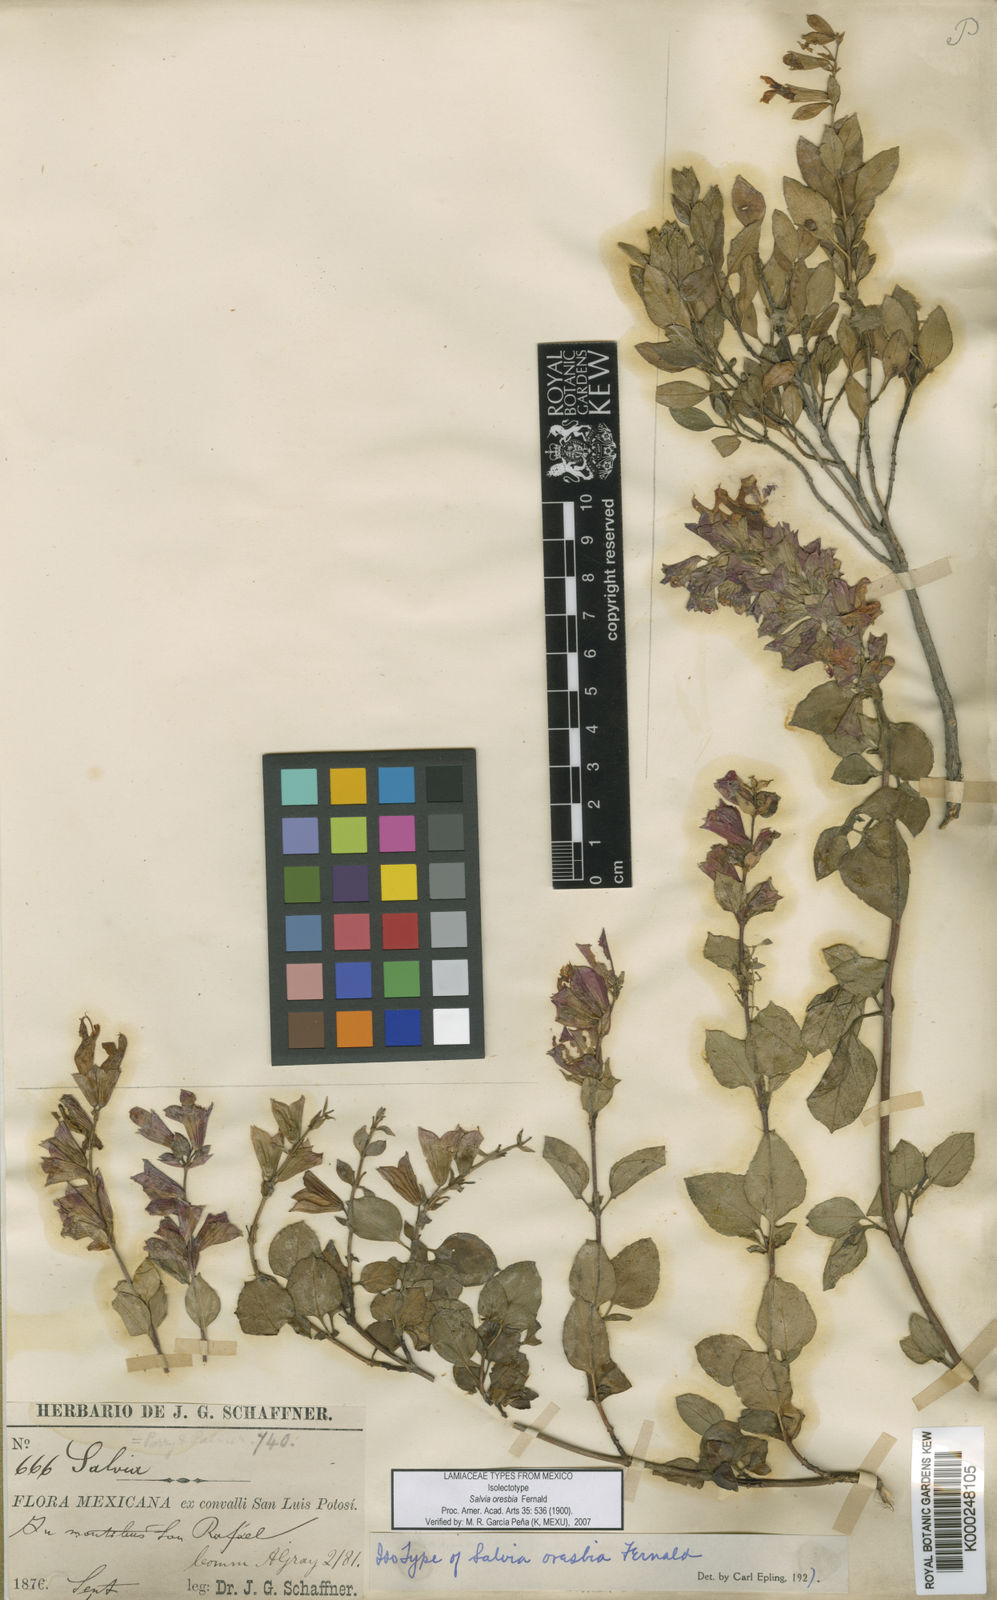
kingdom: Plantae
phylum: Tracheophyta
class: Magnoliopsida
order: Lamiales
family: Lamiaceae
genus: Salvia
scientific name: Salvia oresbia
